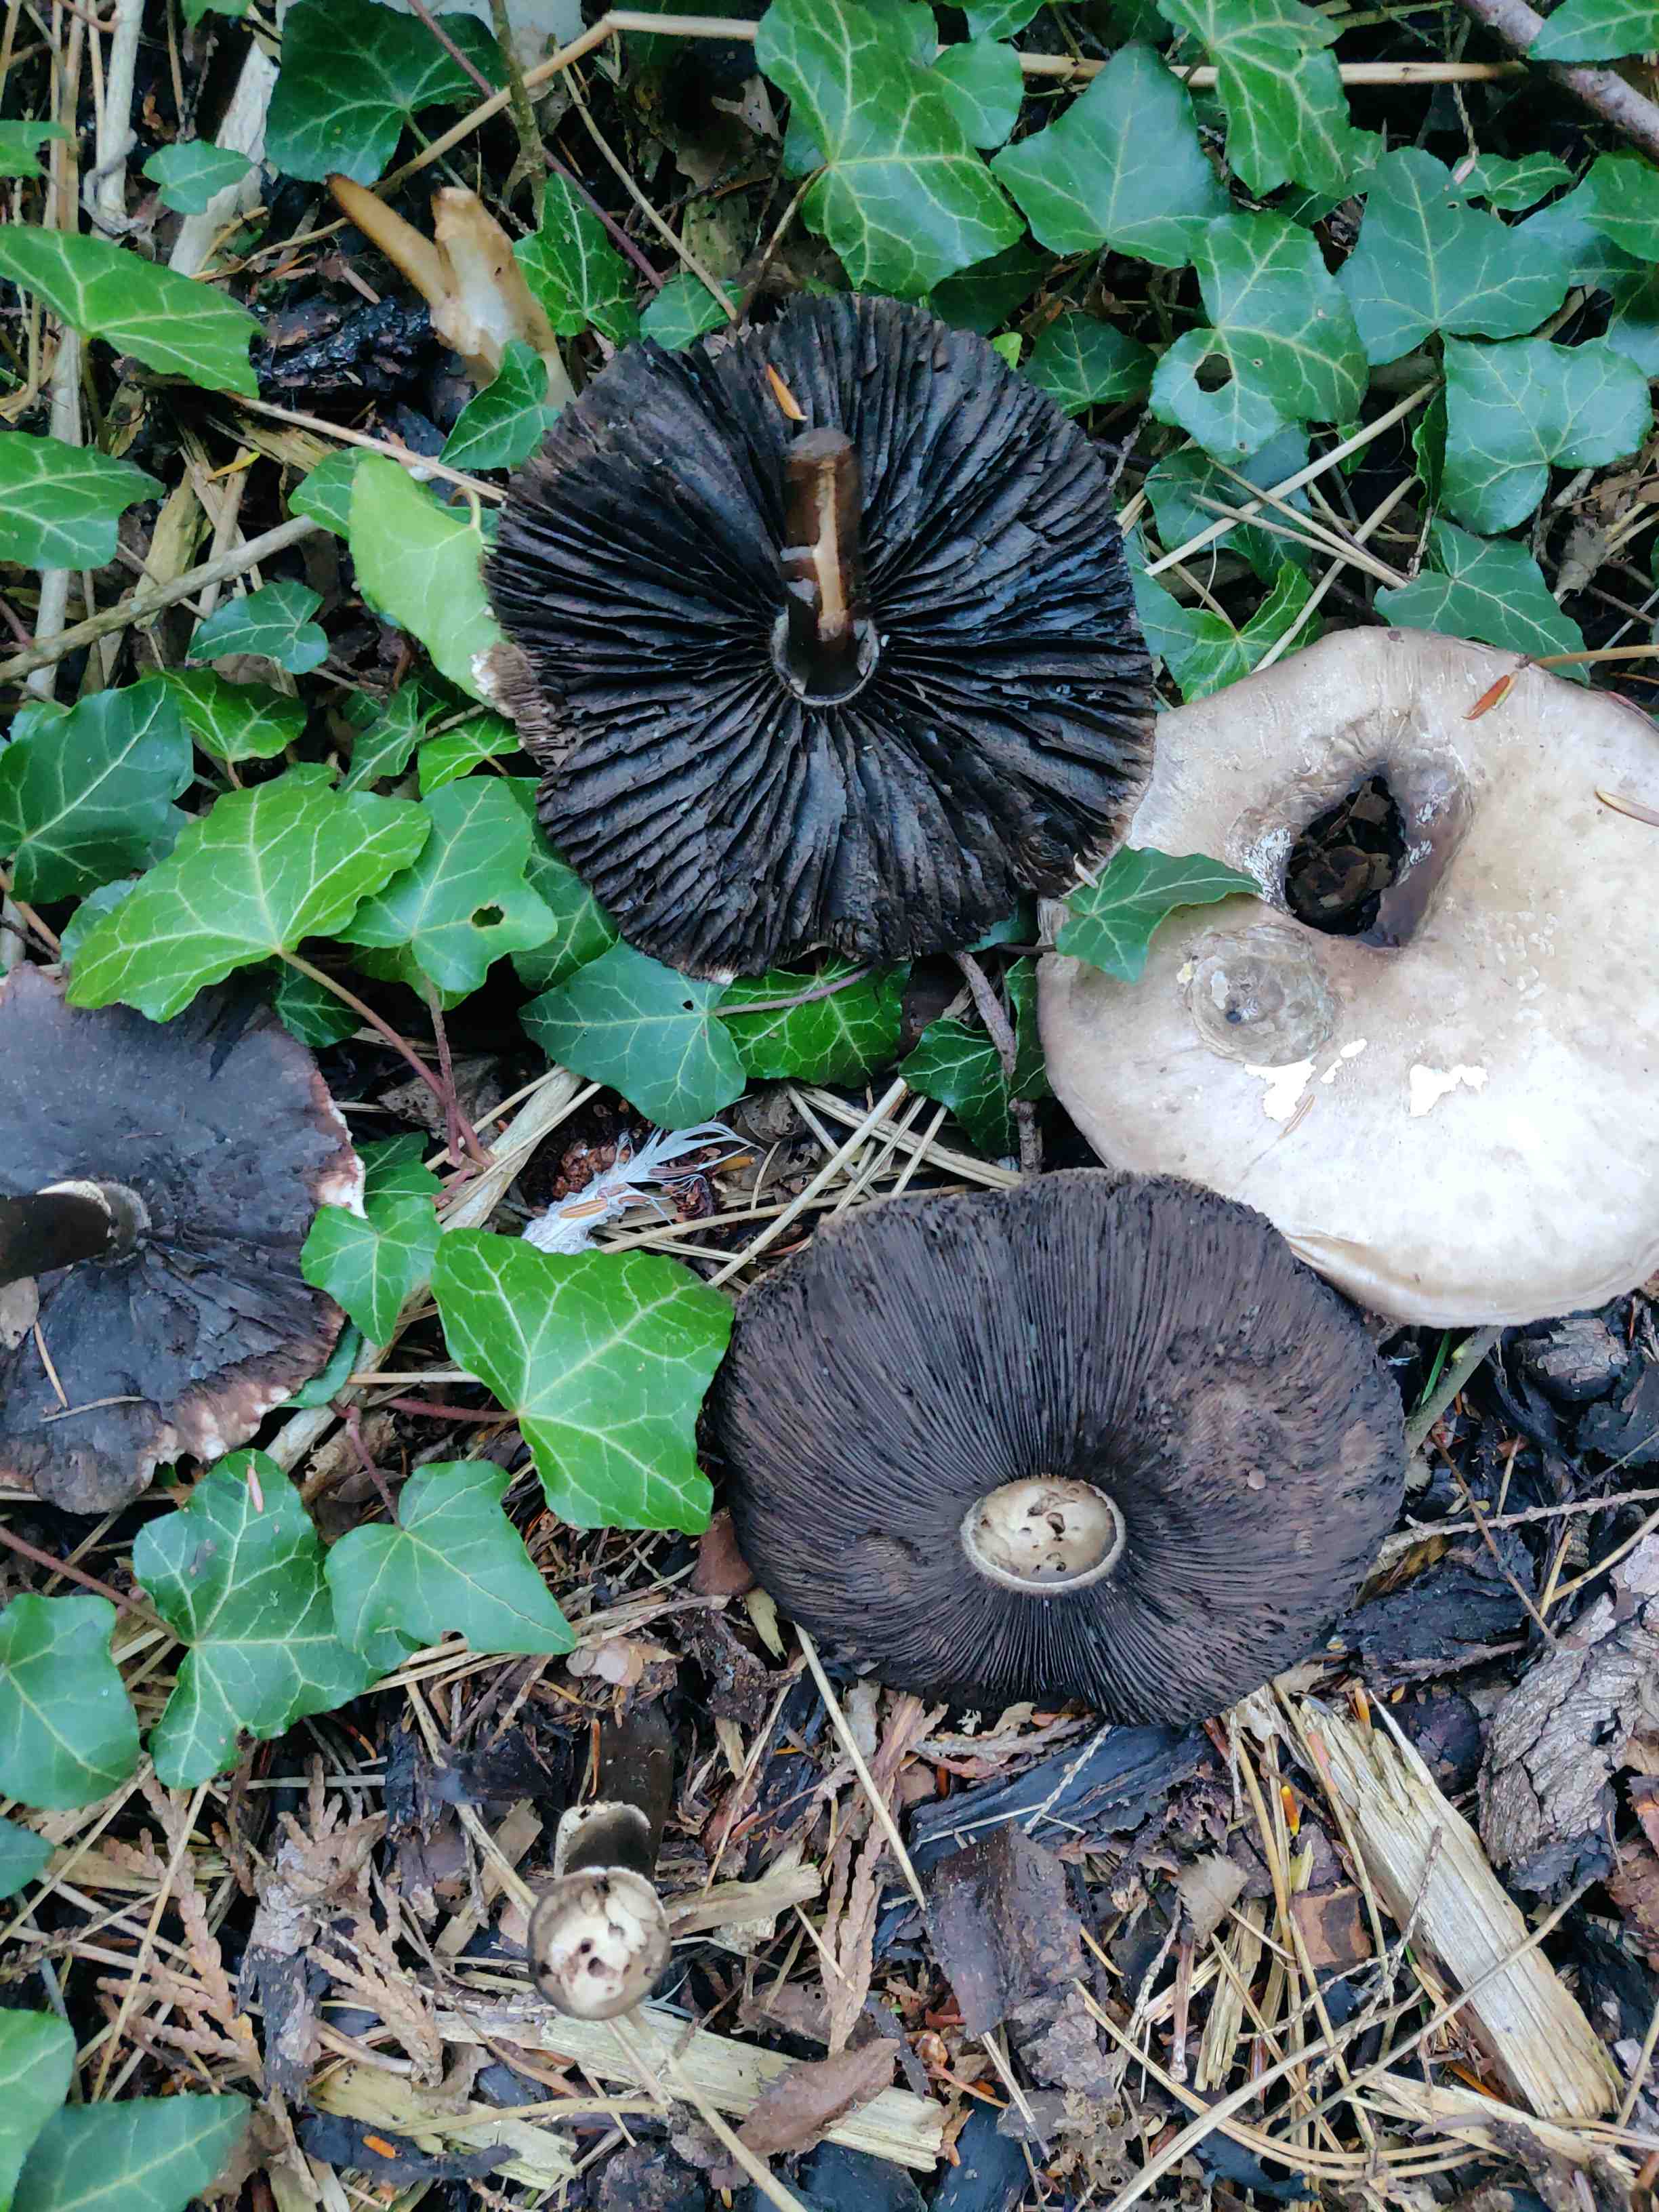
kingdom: Fungi
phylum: Basidiomycota
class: Agaricomycetes
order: Agaricales
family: Agaricaceae
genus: Agaricus
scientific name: Agaricus
